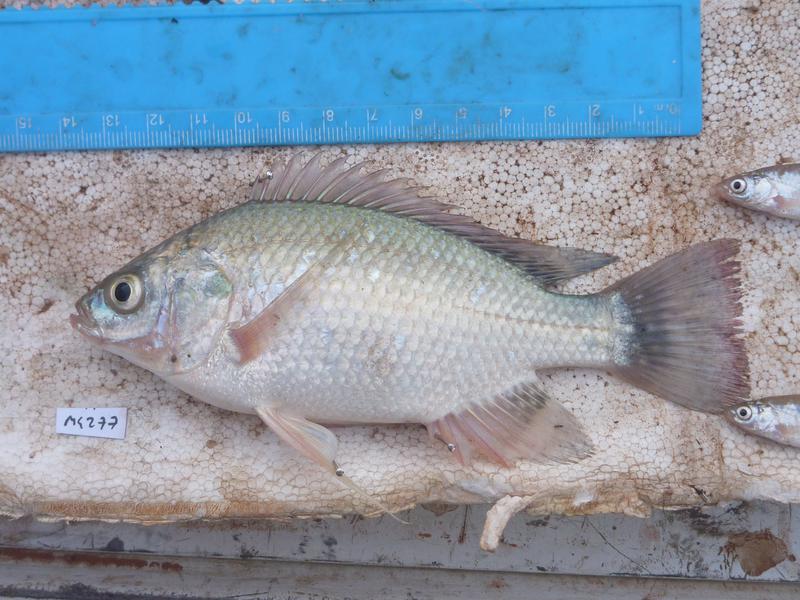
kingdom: Animalia
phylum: Chordata
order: Perciformes
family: Cichlidae
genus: Oreochromis
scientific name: Oreochromis esculentus
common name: Carp
